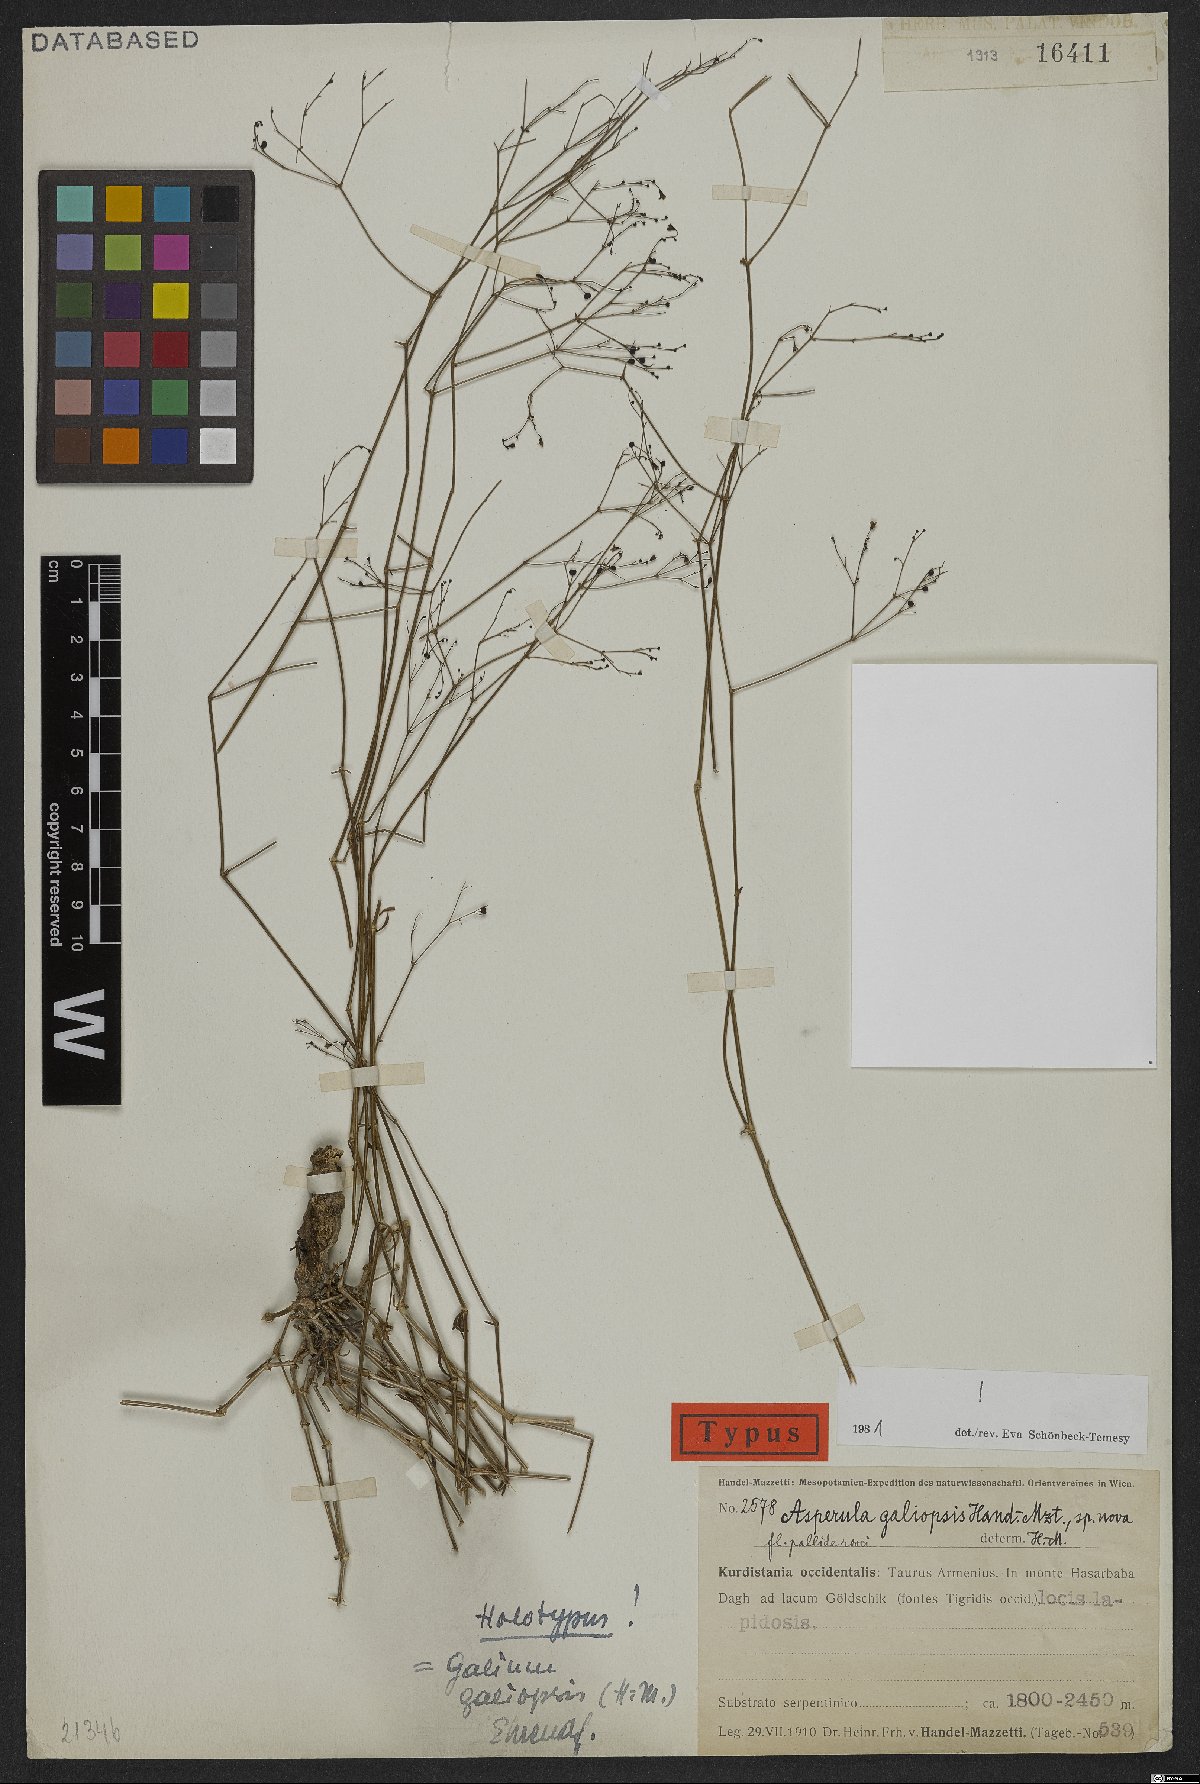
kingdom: Plantae
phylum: Tracheophyta
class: Magnoliopsida
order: Gentianales
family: Rubiaceae
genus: Galium
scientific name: Galium galiopsis
